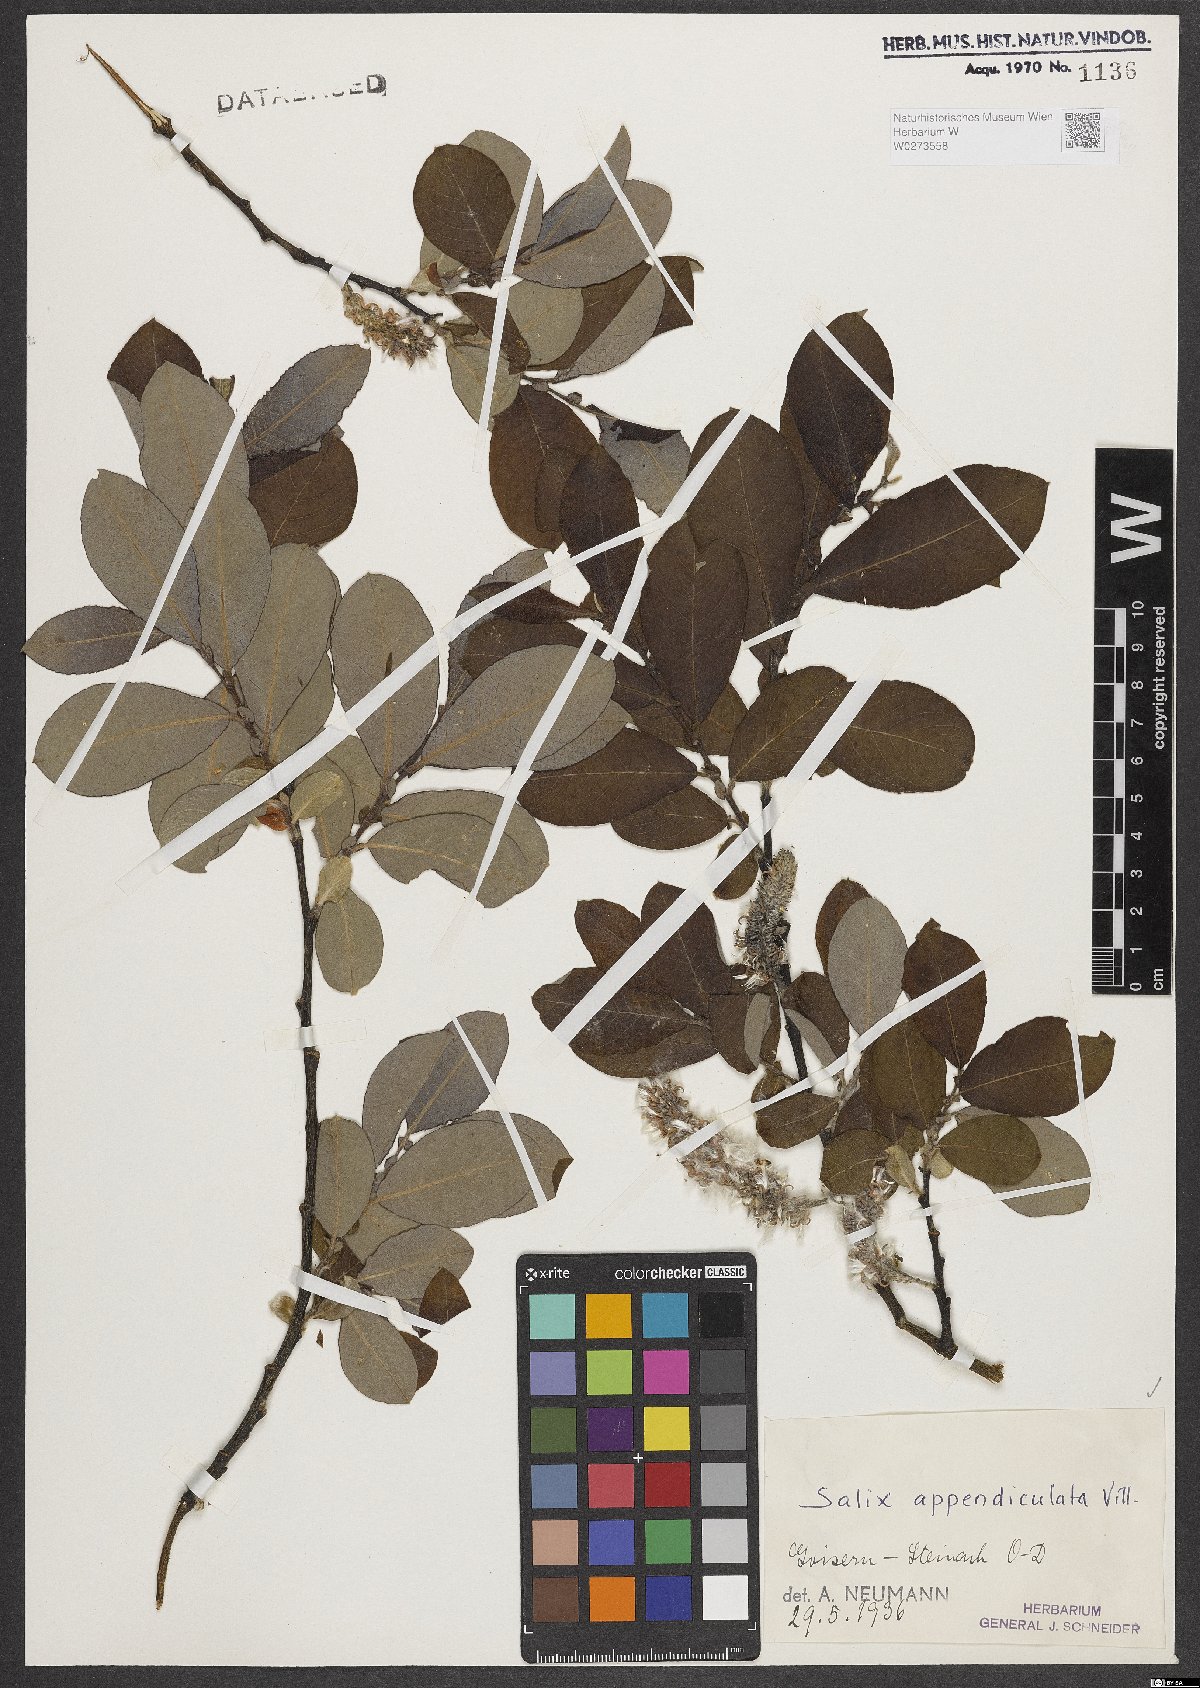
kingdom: Plantae
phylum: Tracheophyta
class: Magnoliopsida
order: Malpighiales
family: Salicaceae
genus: Salix
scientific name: Salix appendiculata
